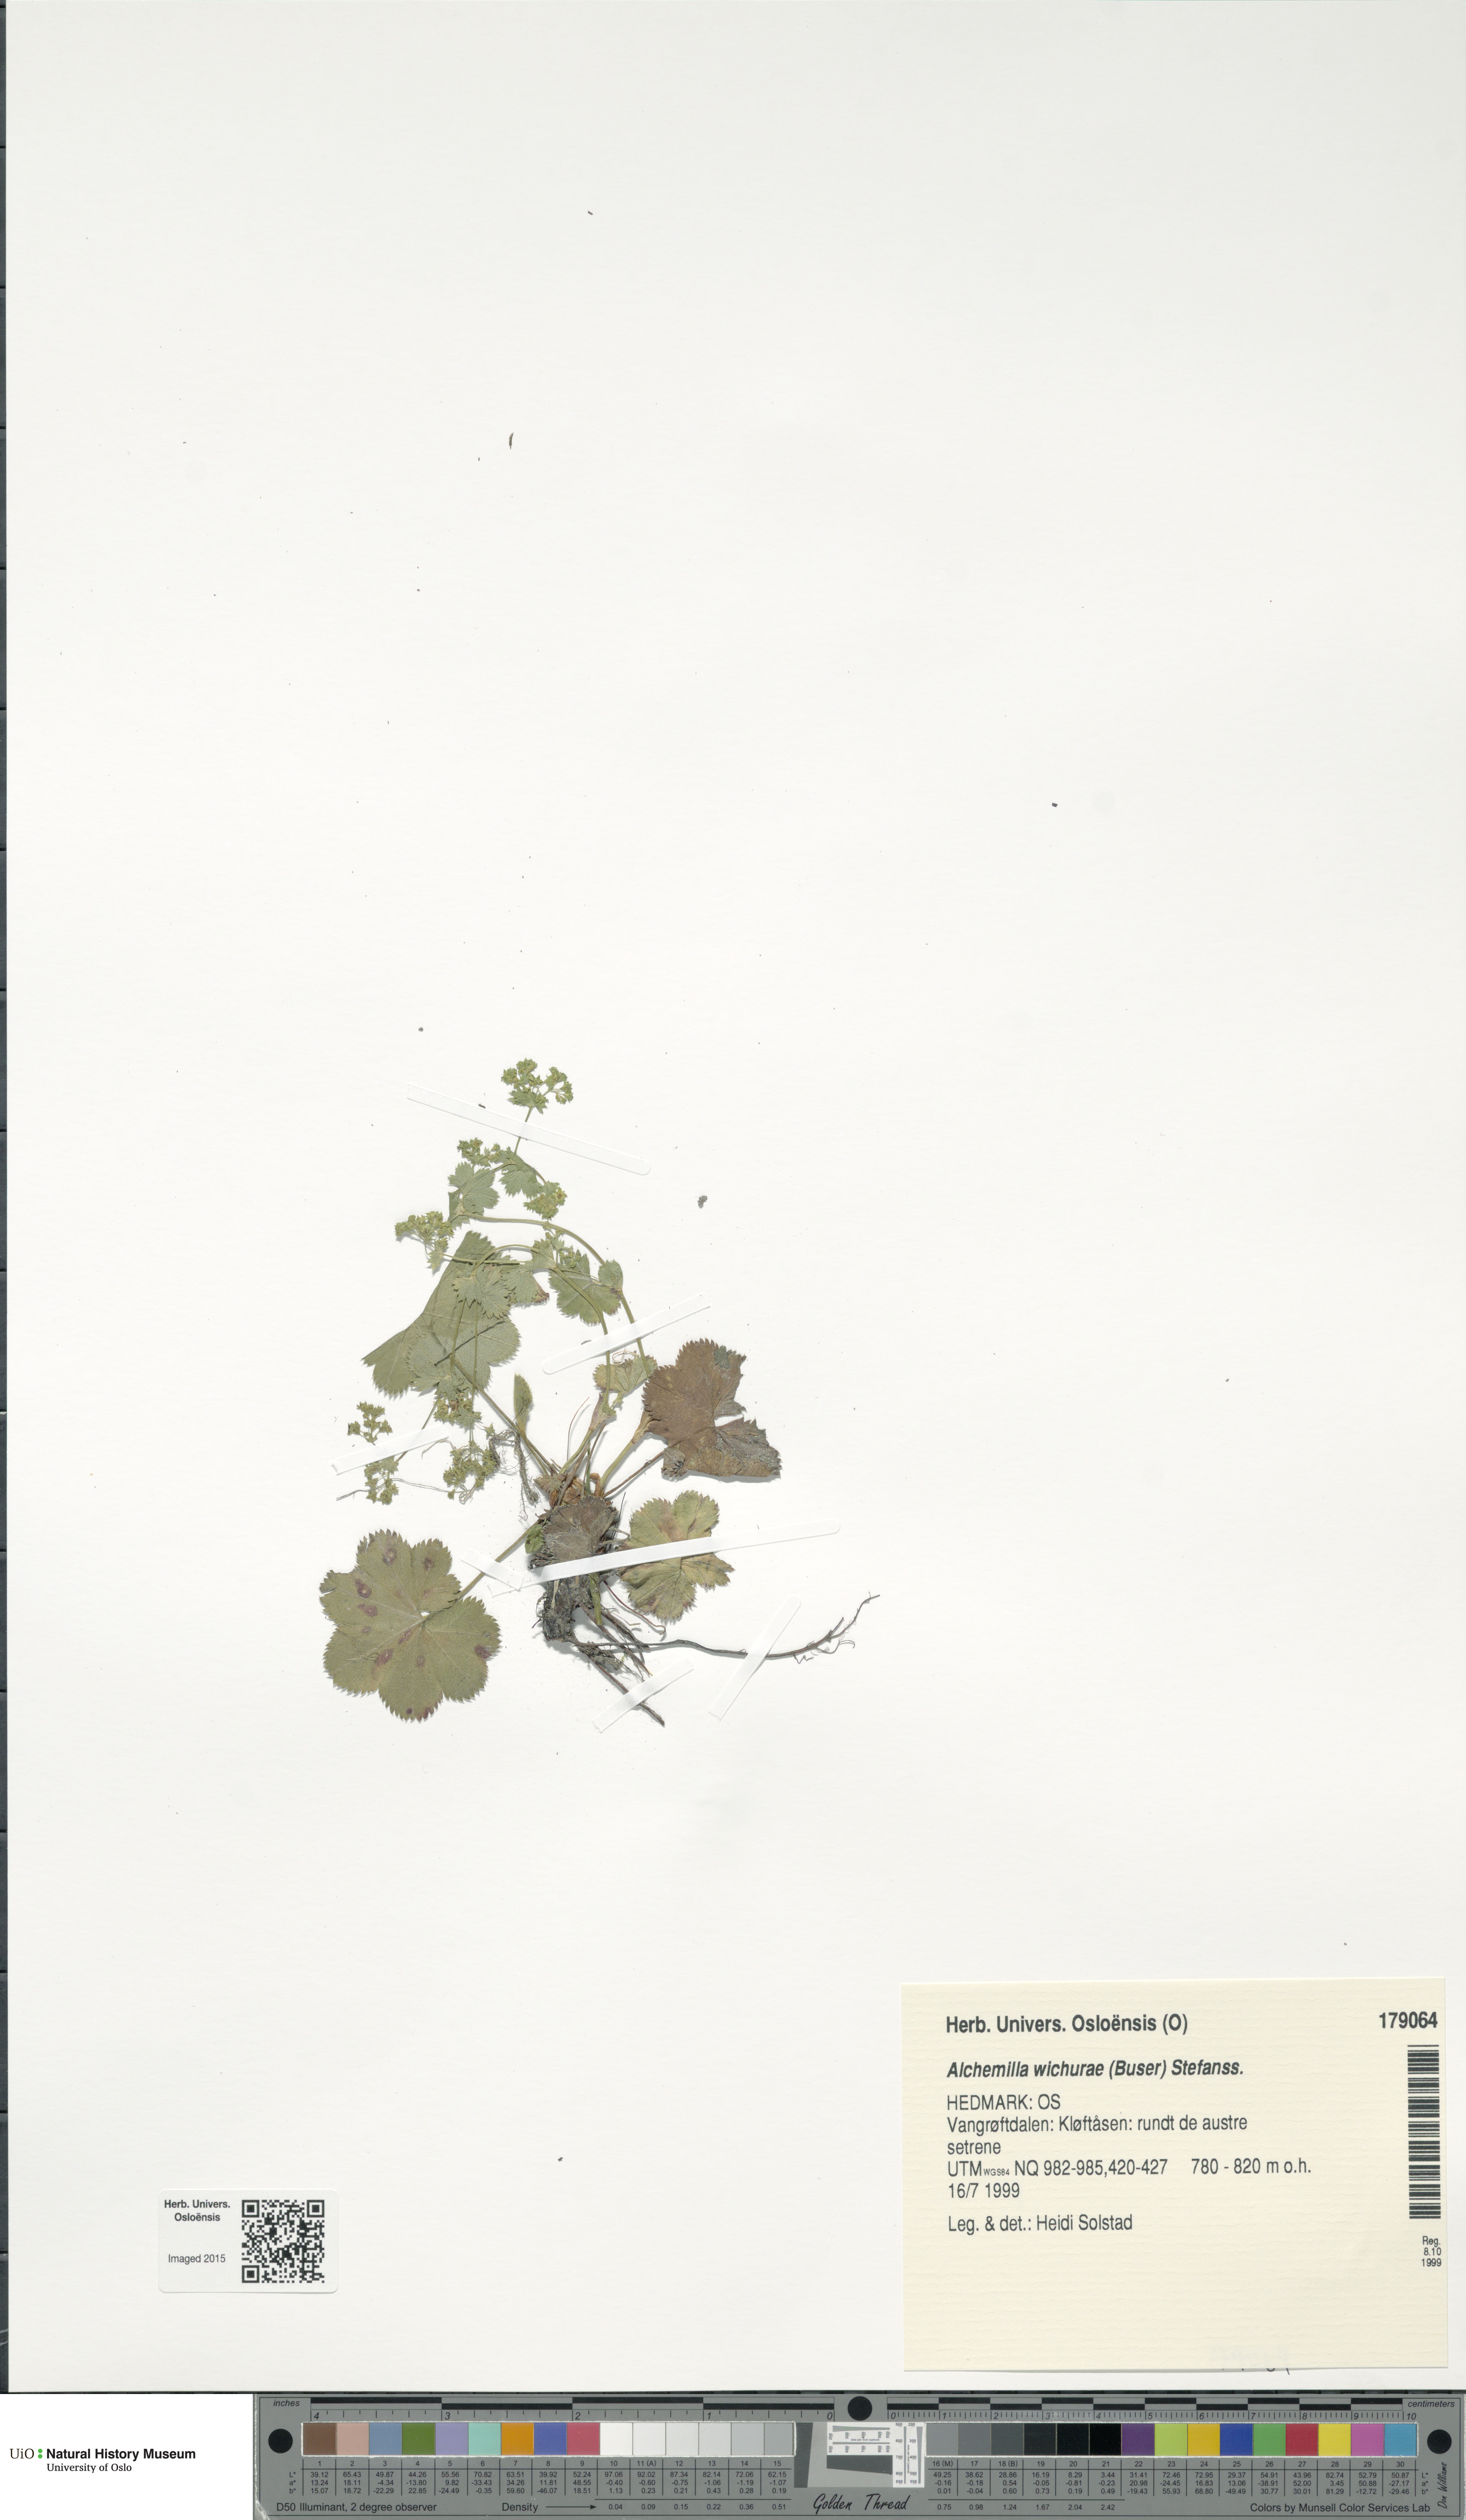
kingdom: Plantae
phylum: Tracheophyta
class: Magnoliopsida
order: Rosales
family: Rosaceae
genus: Alchemilla
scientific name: Alchemilla wichurae
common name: Rock lady's mantle
